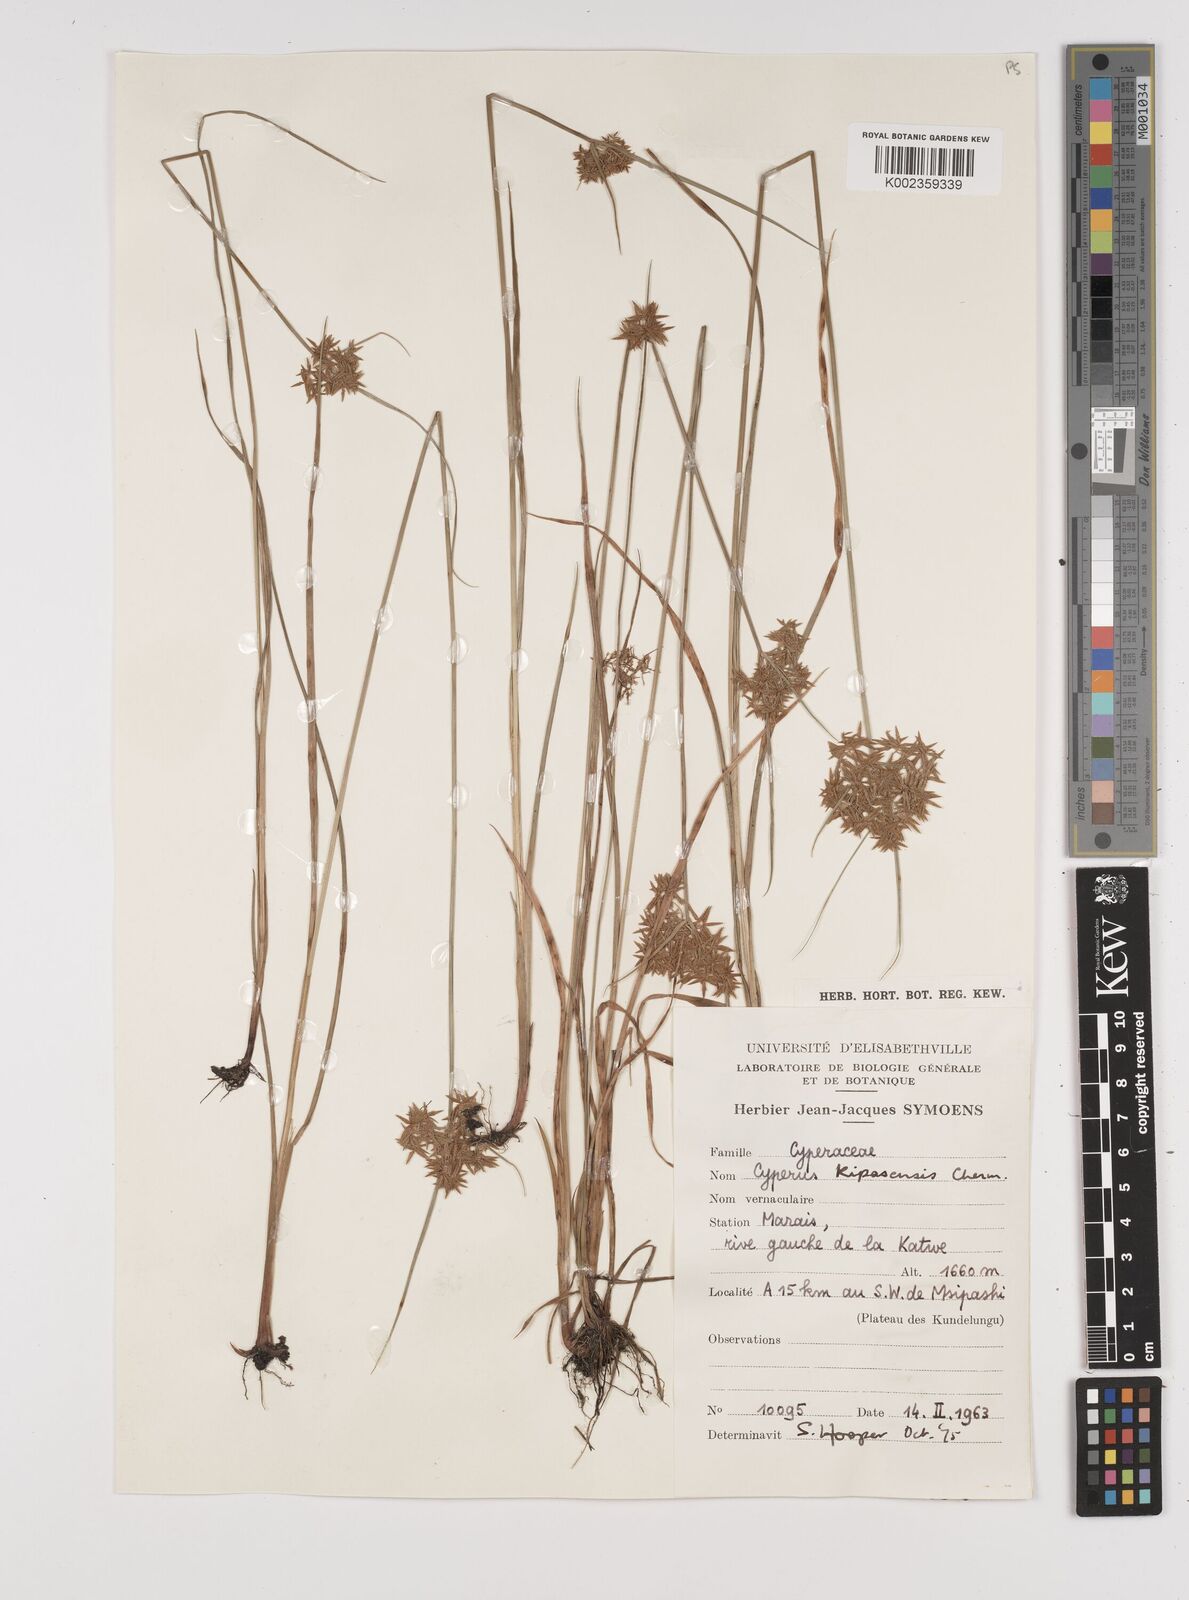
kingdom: Plantae
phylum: Tracheophyta
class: Liliopsida
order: Poales
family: Cyperaceae
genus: Cyperus
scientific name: Cyperus kipasensis
